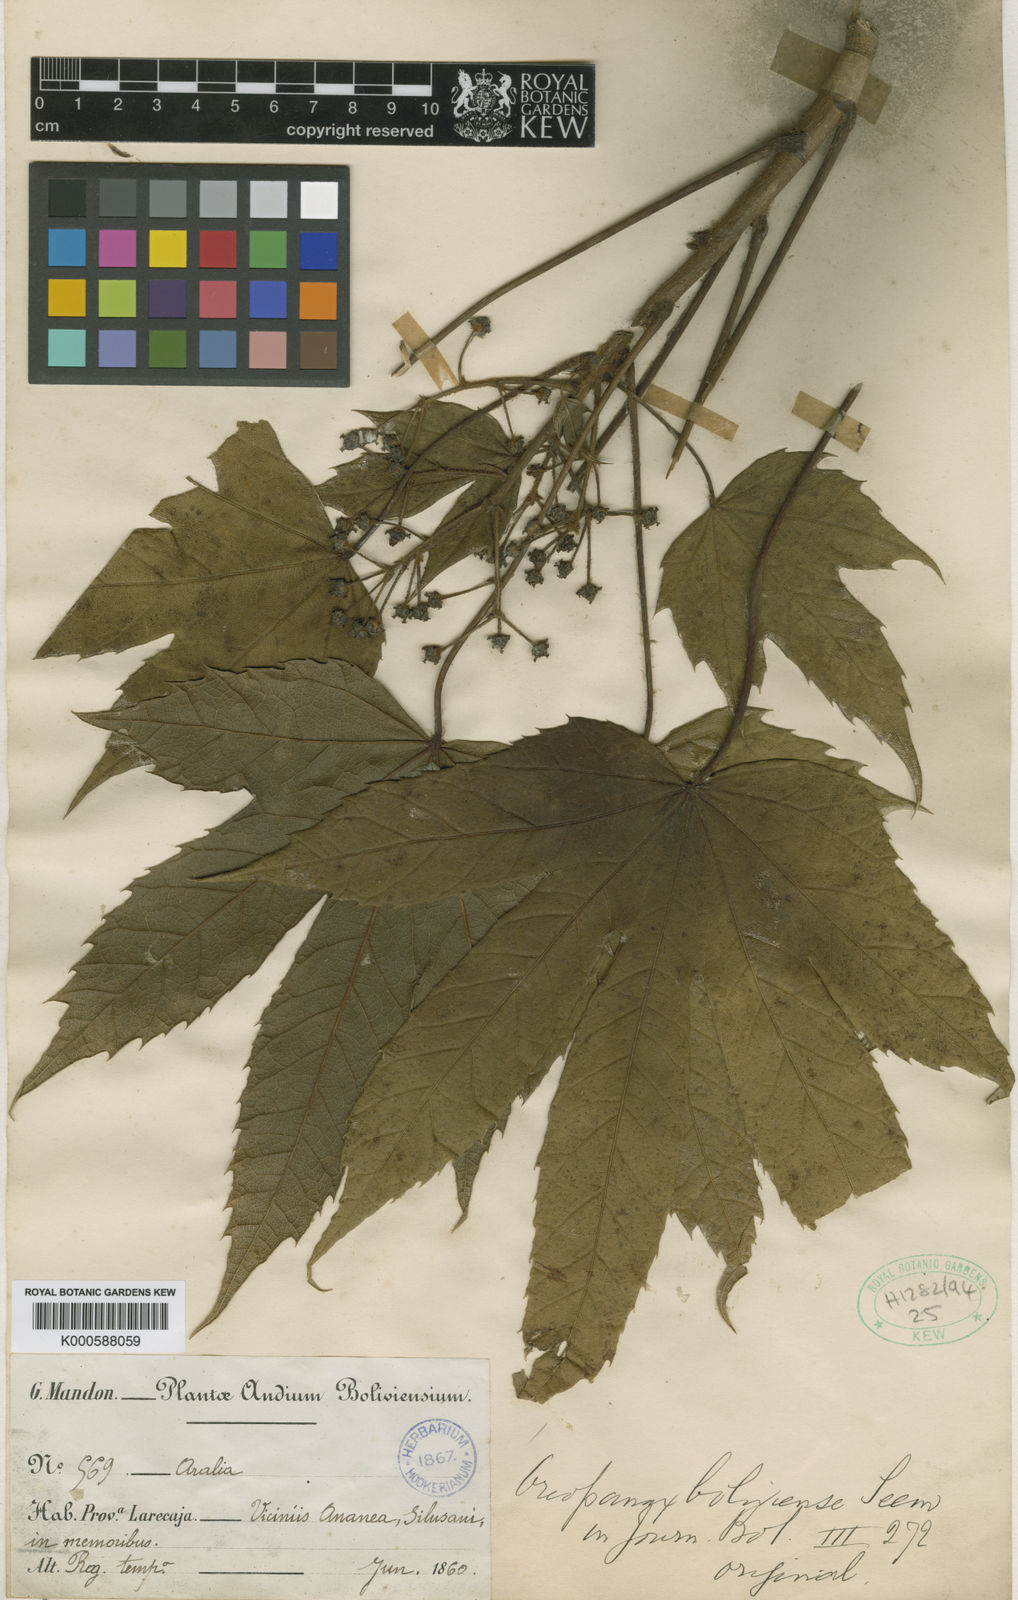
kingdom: Plantae
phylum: Tracheophyta
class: Magnoliopsida
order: Apiales
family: Araliaceae
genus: Oreopanax
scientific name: Oreopanax boliviensis
